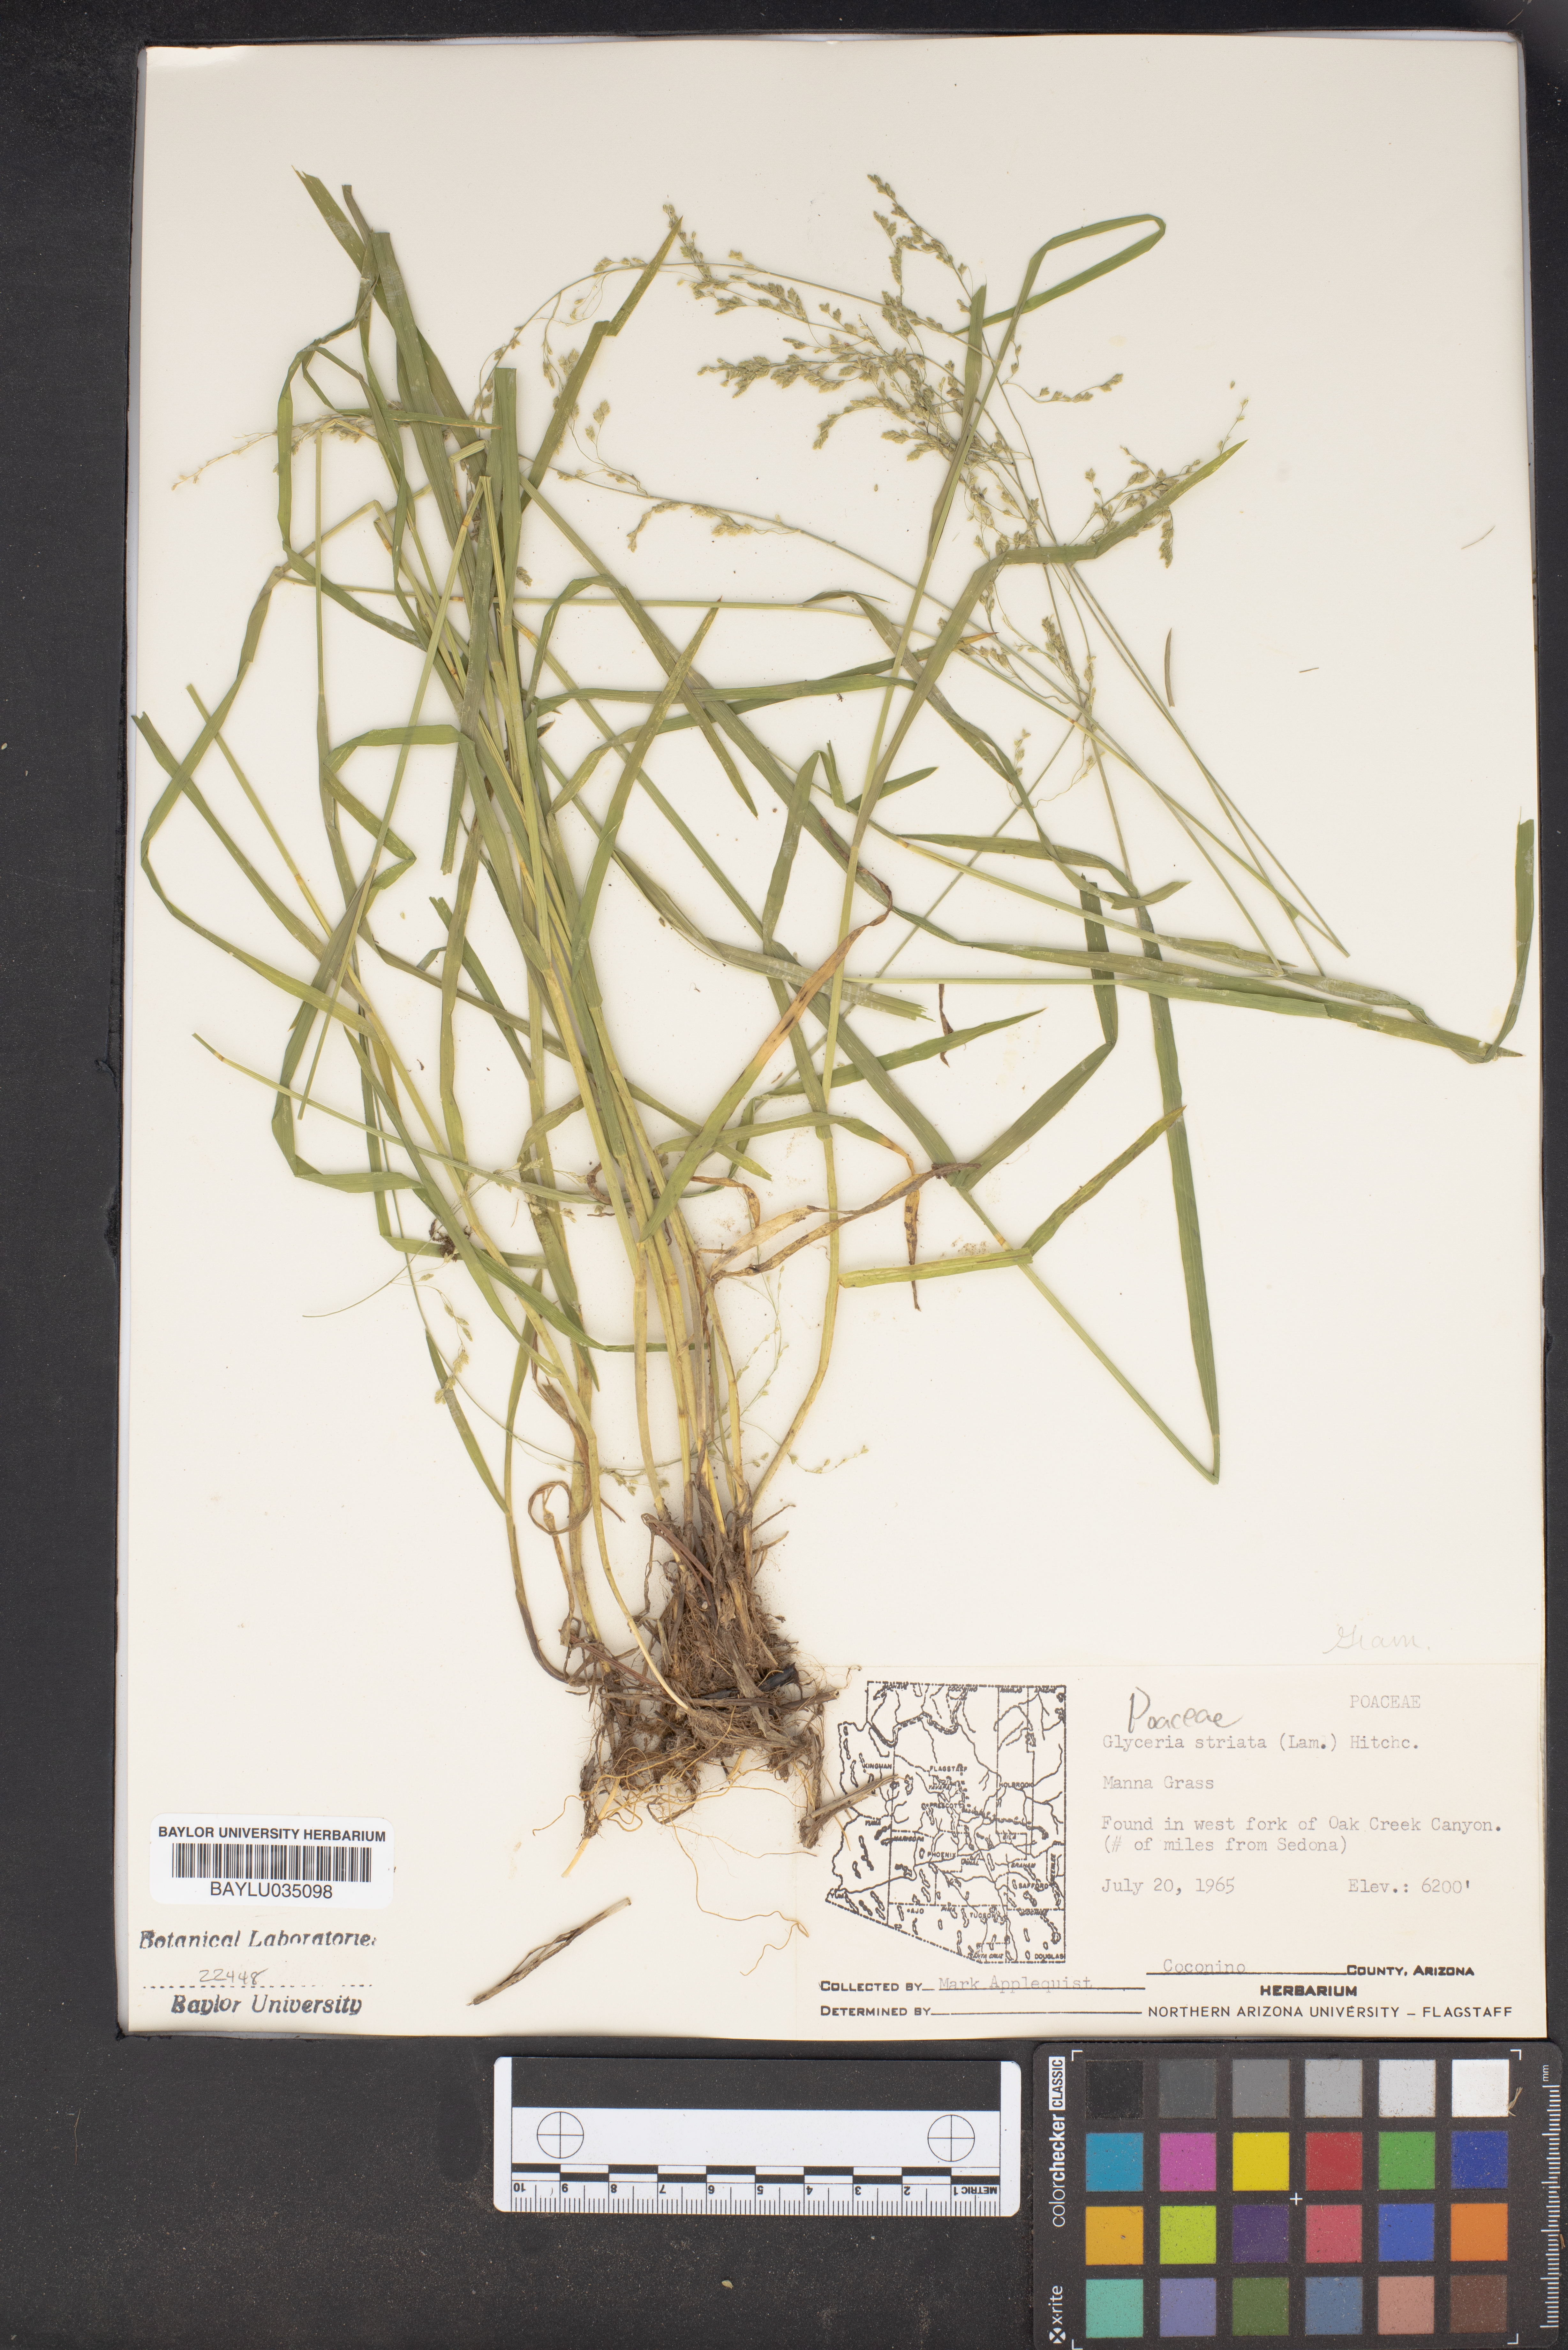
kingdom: Plantae
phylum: Tracheophyta
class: Liliopsida
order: Poales
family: Poaceae
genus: Glyceria
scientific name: Glyceria striata
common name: Fowl manna grass
